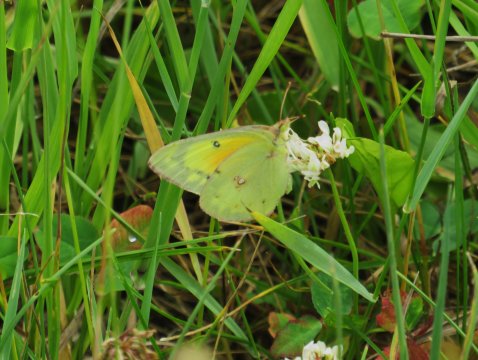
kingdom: Animalia
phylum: Arthropoda
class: Insecta
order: Lepidoptera
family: Pieridae
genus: Colias
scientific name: Colias eurytheme
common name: Orange Sulphur
